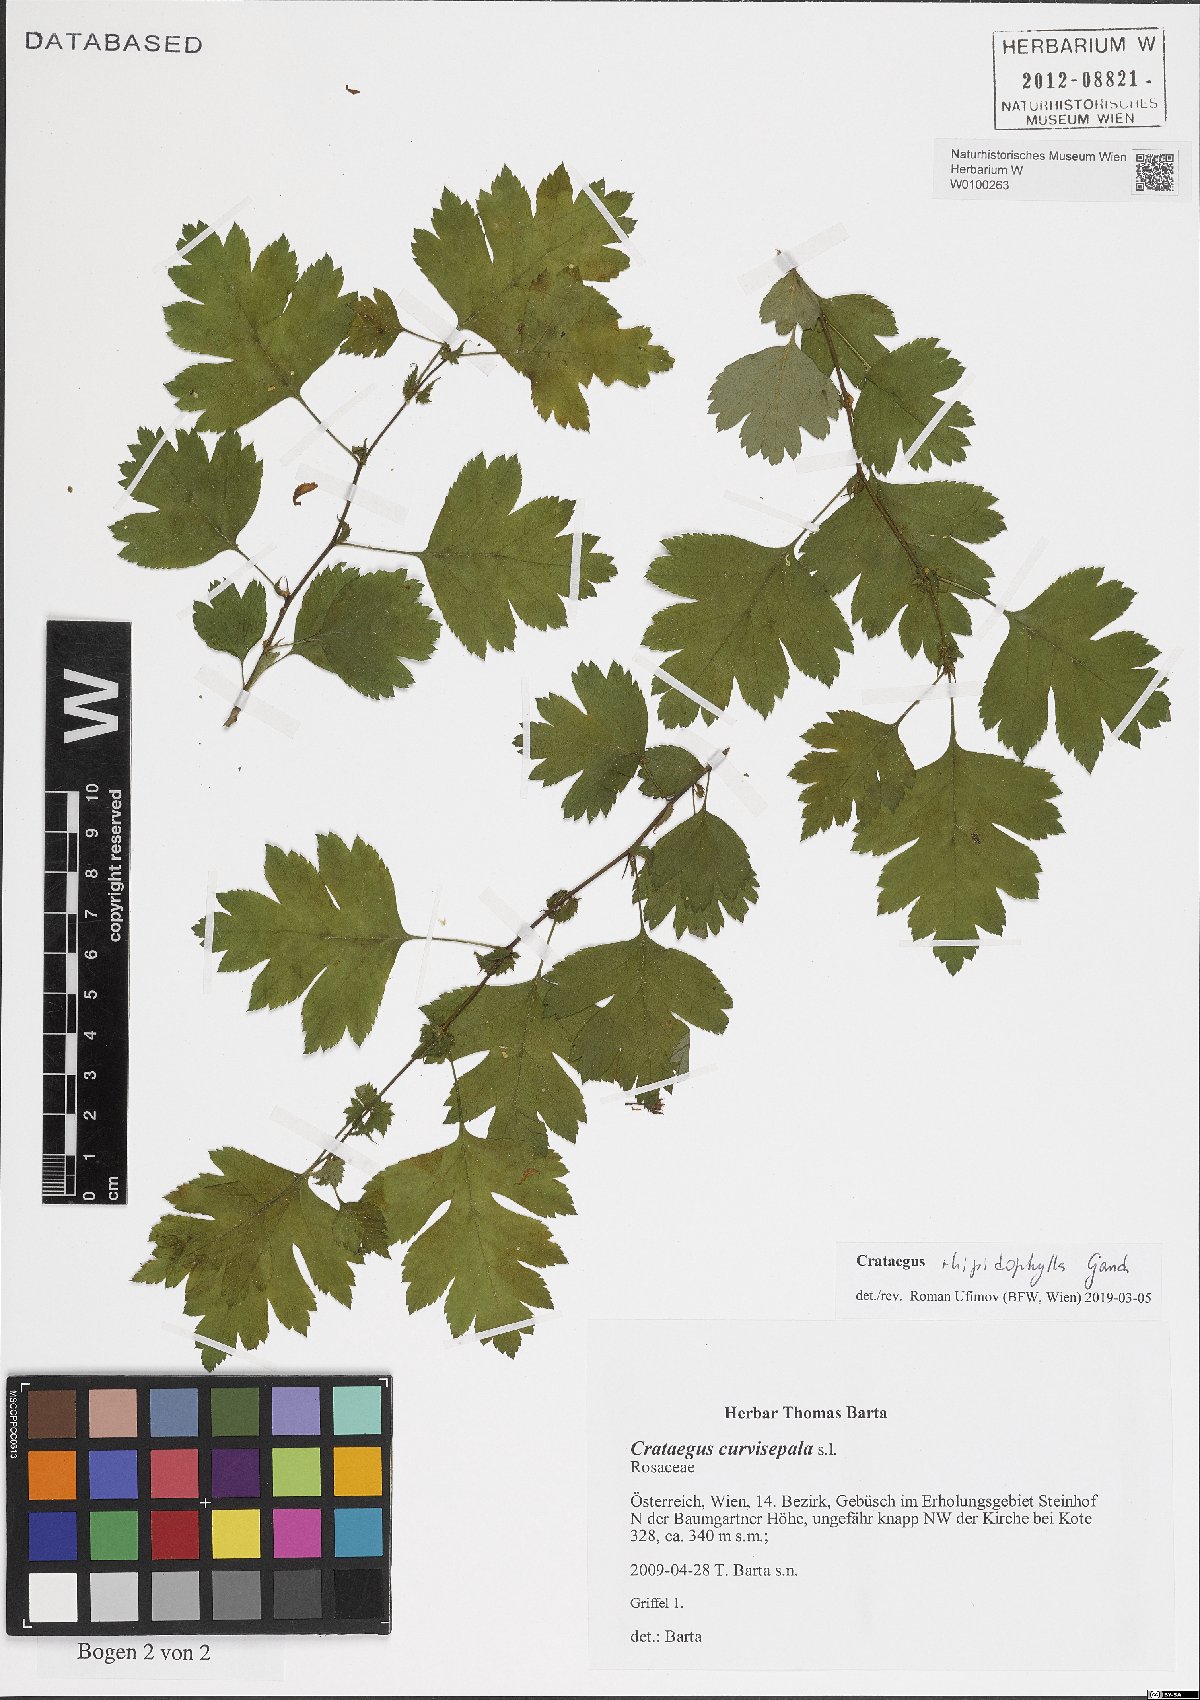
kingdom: Plantae
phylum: Tracheophyta
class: Magnoliopsida
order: Rosales
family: Rosaceae
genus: Crataegus
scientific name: Crataegus rhipidophylla
